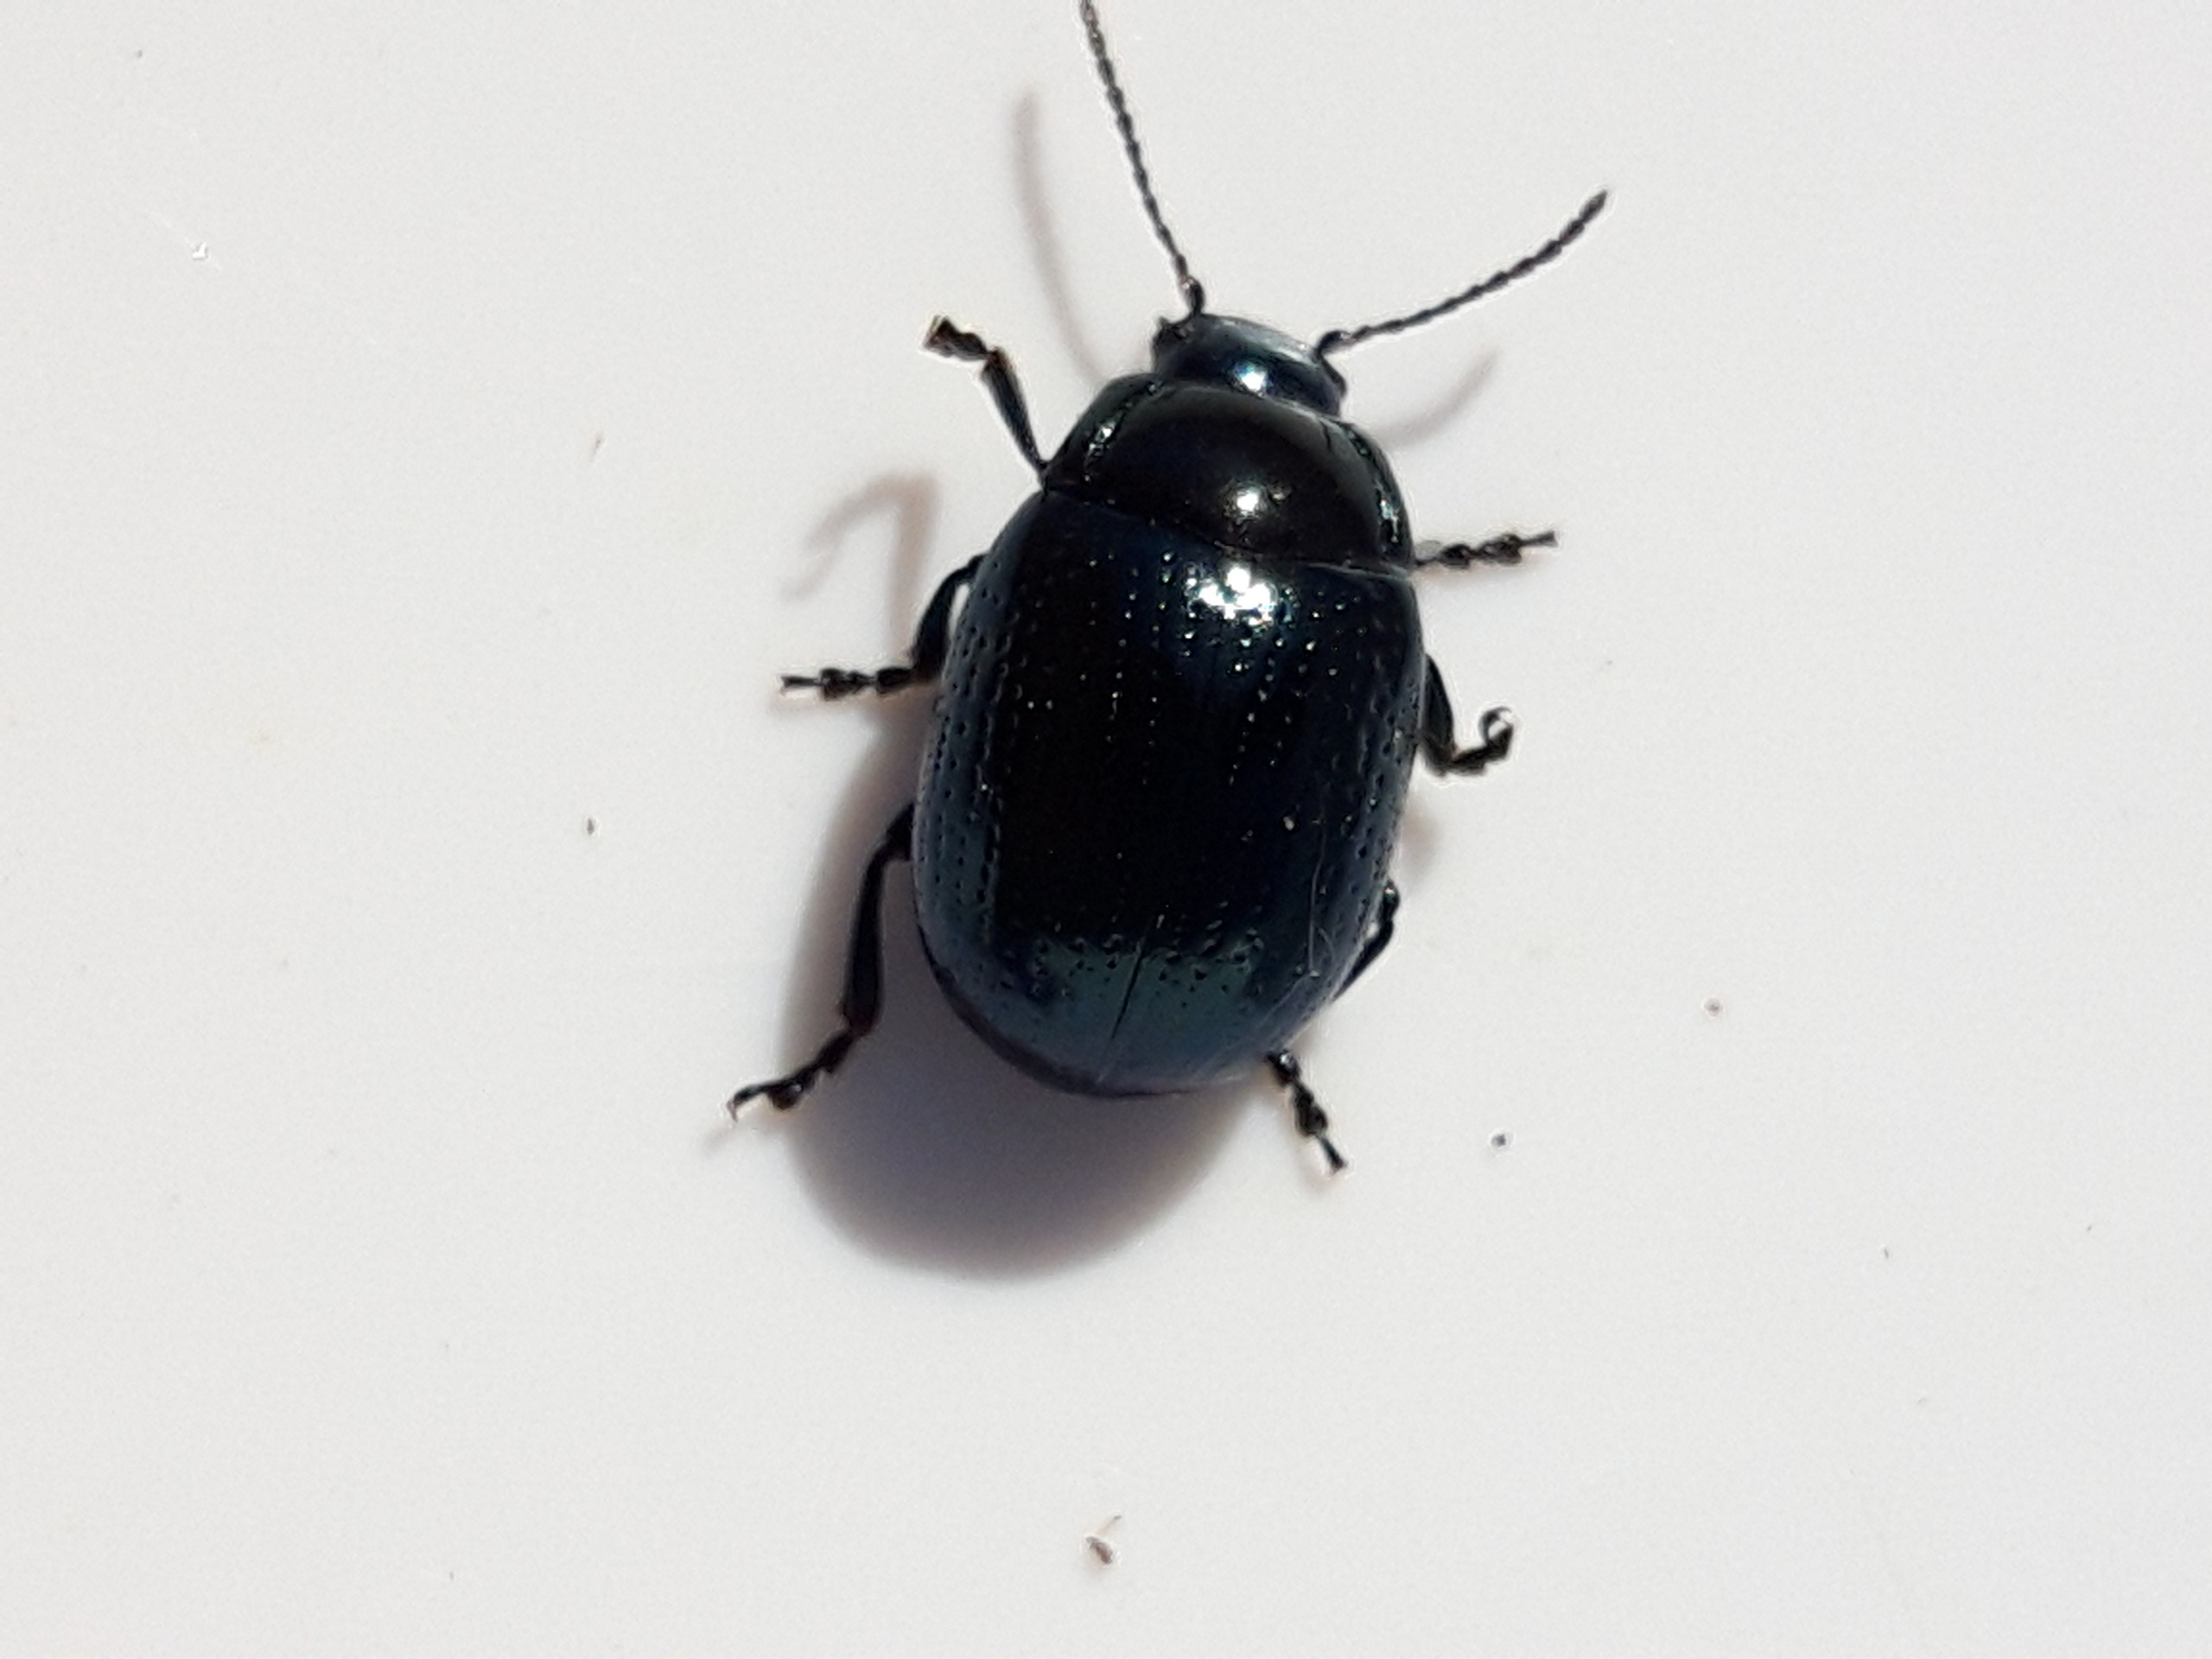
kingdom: Animalia
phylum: Arthropoda
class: Insecta
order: Coleoptera
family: Chrysomelidae
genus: Chrysolina
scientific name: Chrysolina oricalcia
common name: Rækkepunkteret guldbille
